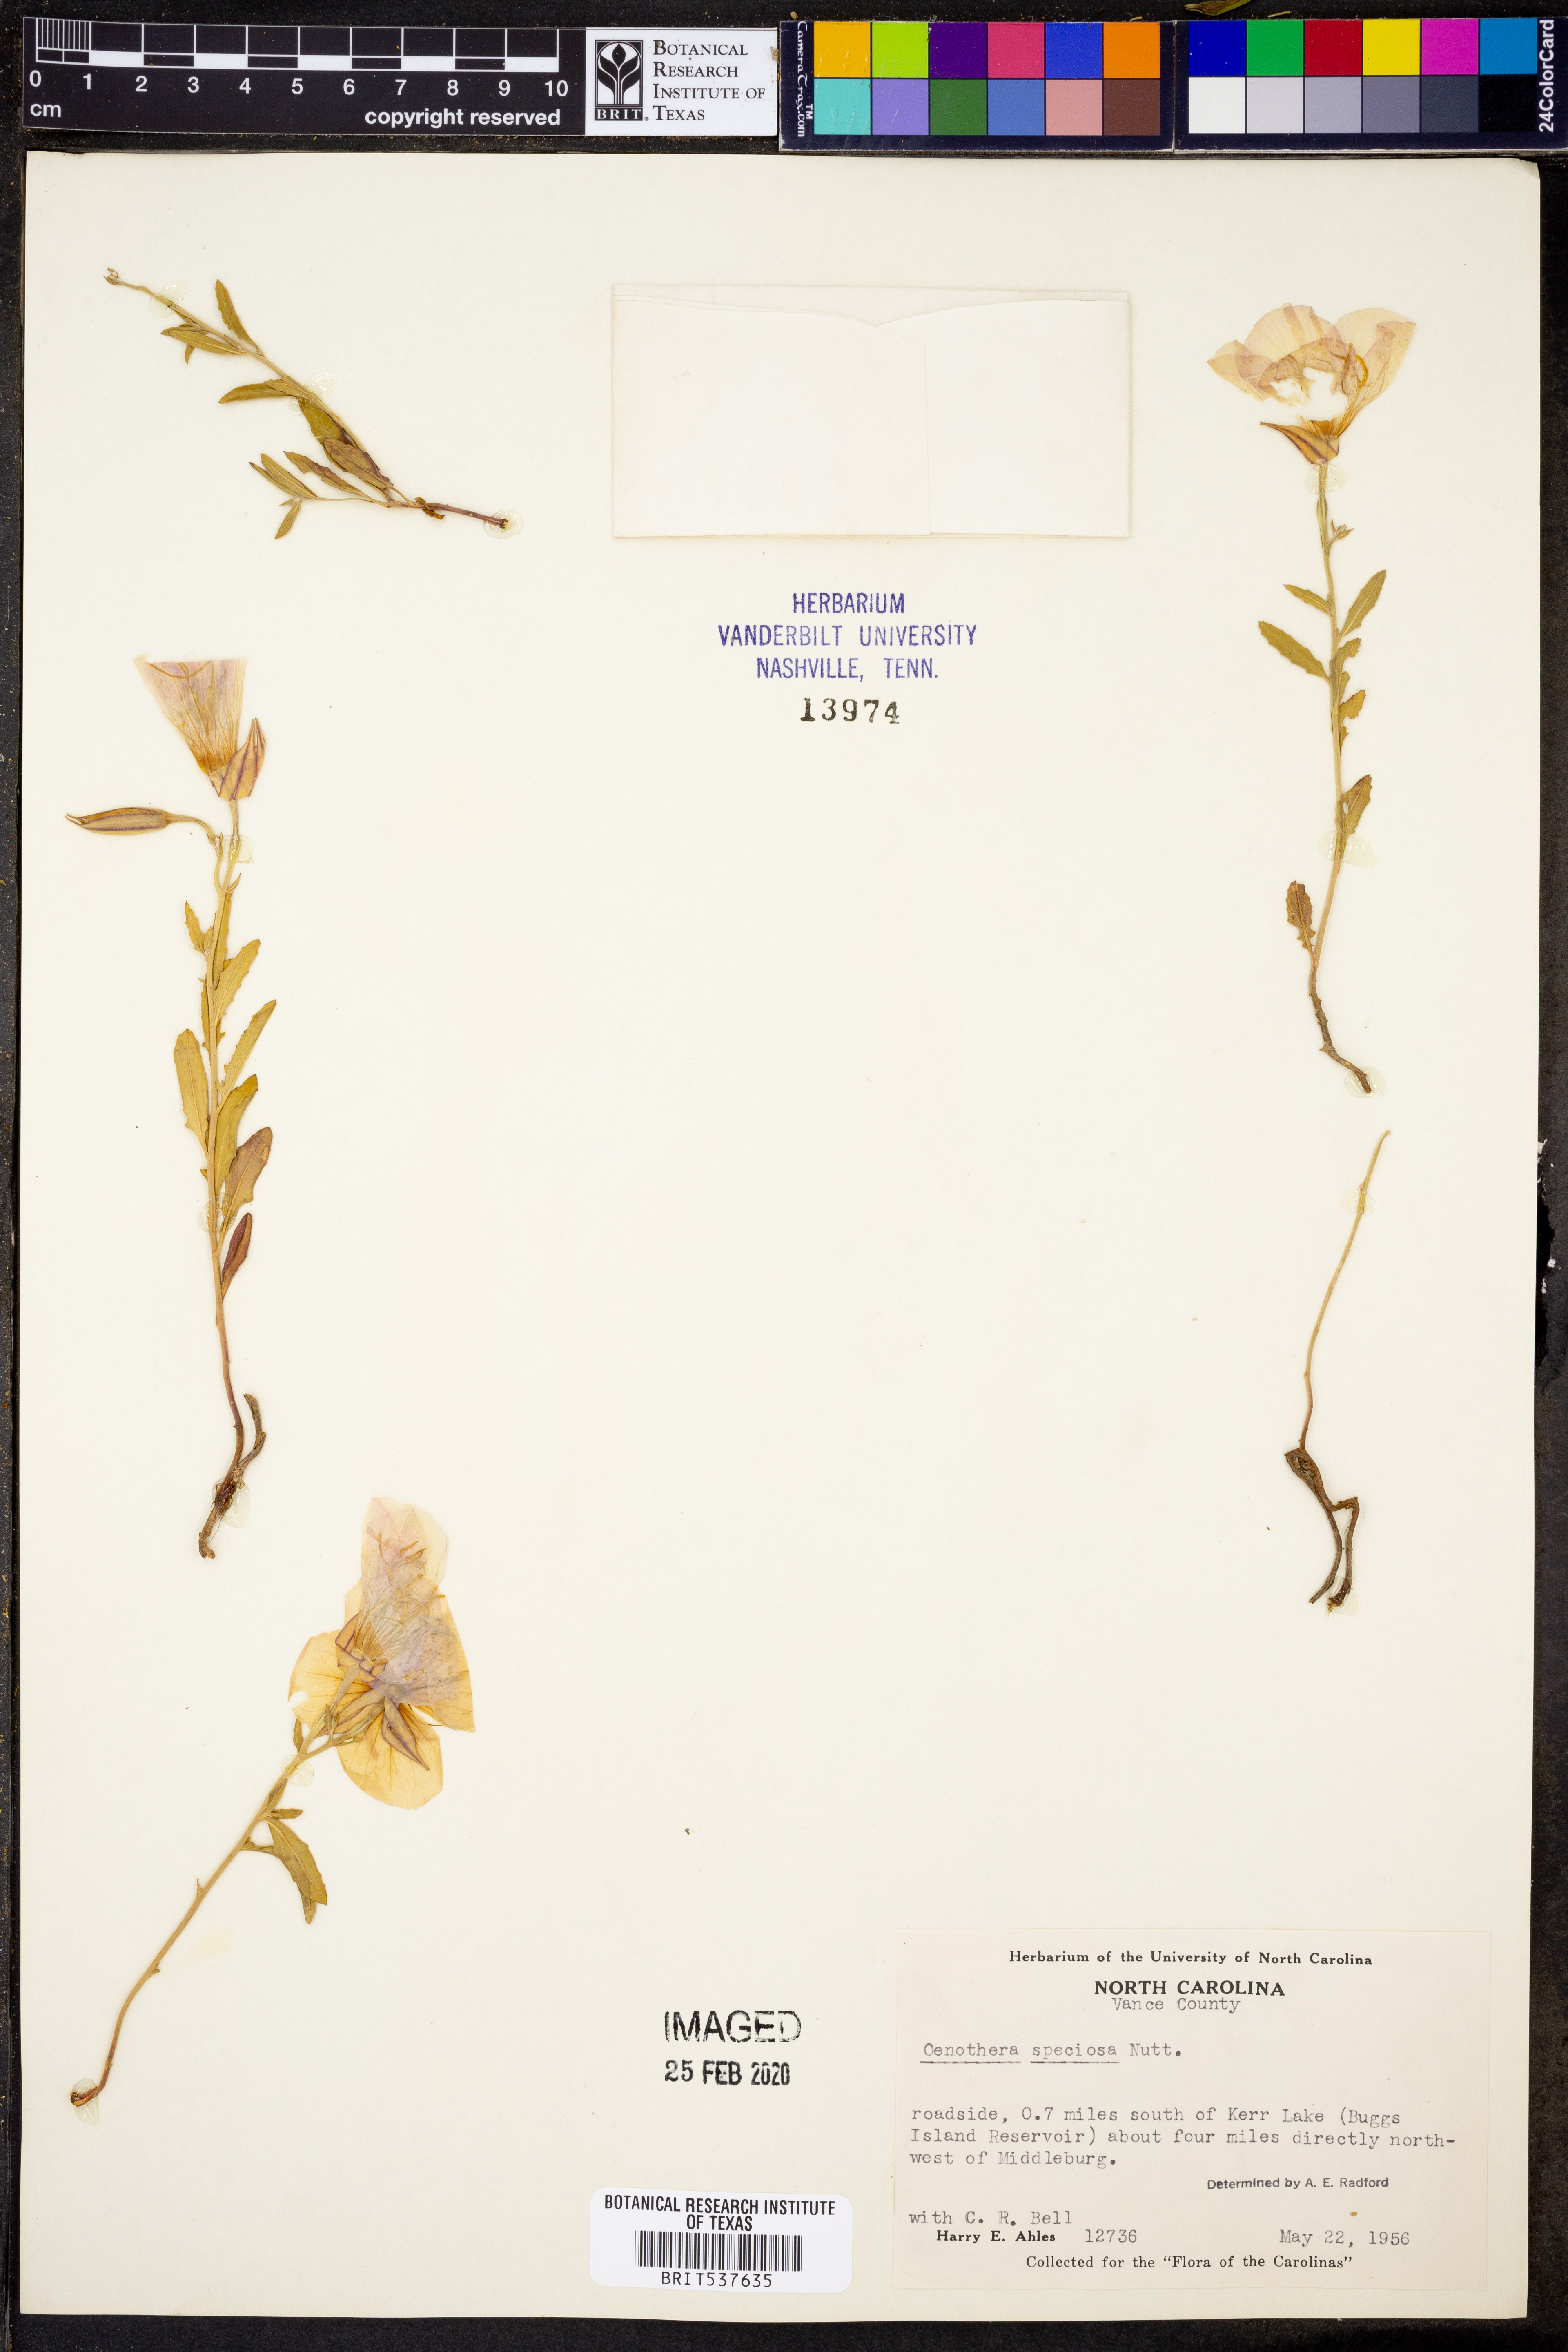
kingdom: Plantae
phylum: Tracheophyta
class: Magnoliopsida
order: Myrtales
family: Onagraceae
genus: Oenothera
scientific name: Oenothera speciosa
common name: White evening-primrose
